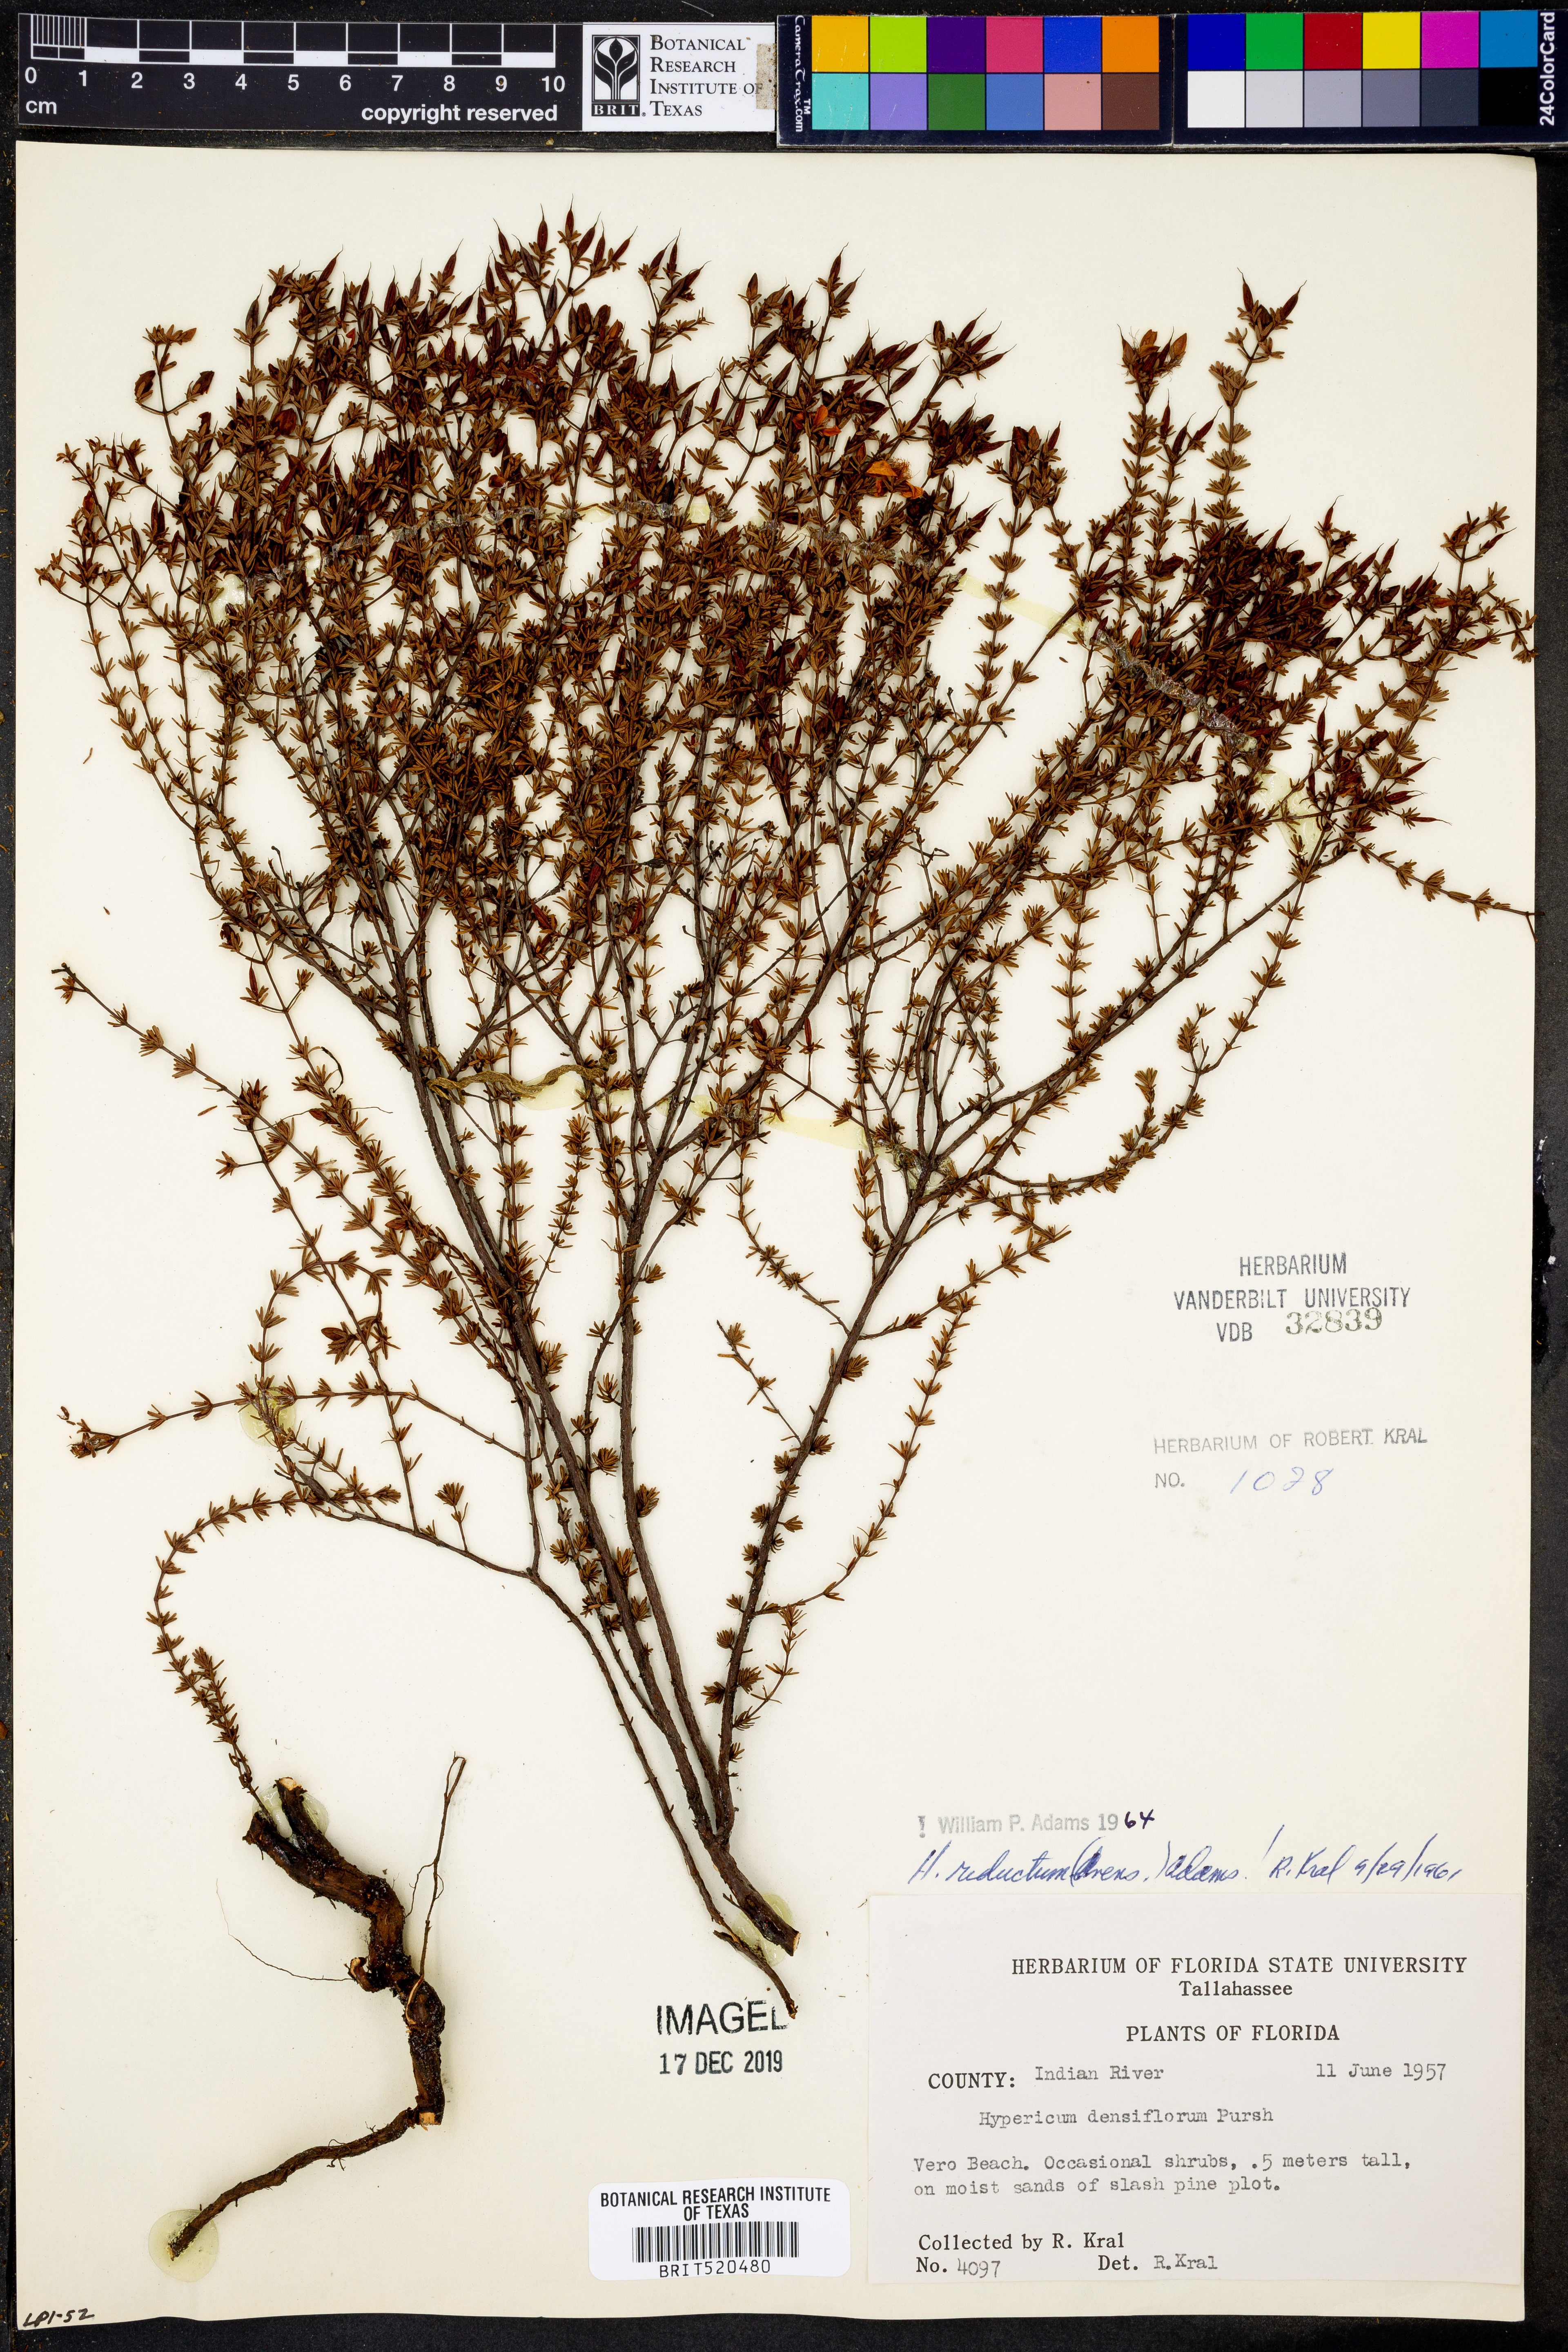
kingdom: Plantae
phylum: Tracheophyta
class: Magnoliopsida
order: Malpighiales
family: Hypericaceae
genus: Hypericum
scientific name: Hypericum tenuifolium
